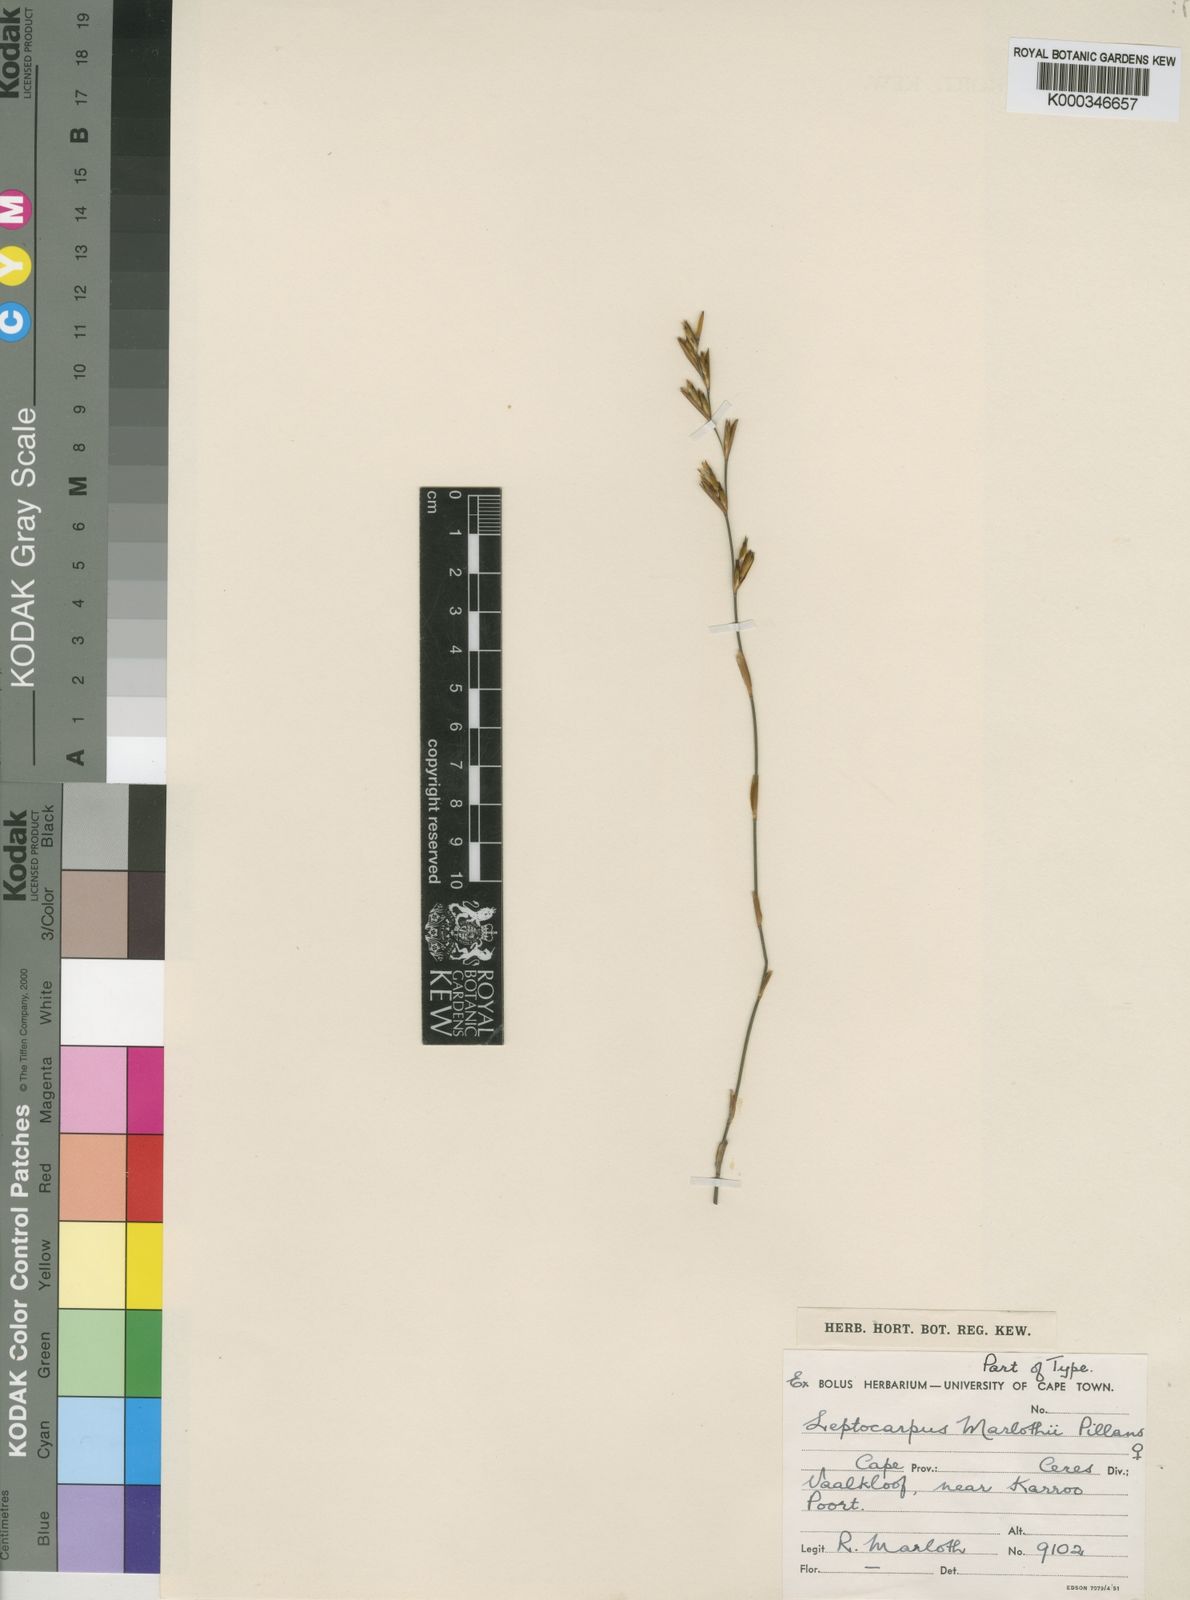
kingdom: Plantae
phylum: Tracheophyta
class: Liliopsida
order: Poales
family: Restionaceae
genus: Restio
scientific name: Restio rudolfii
